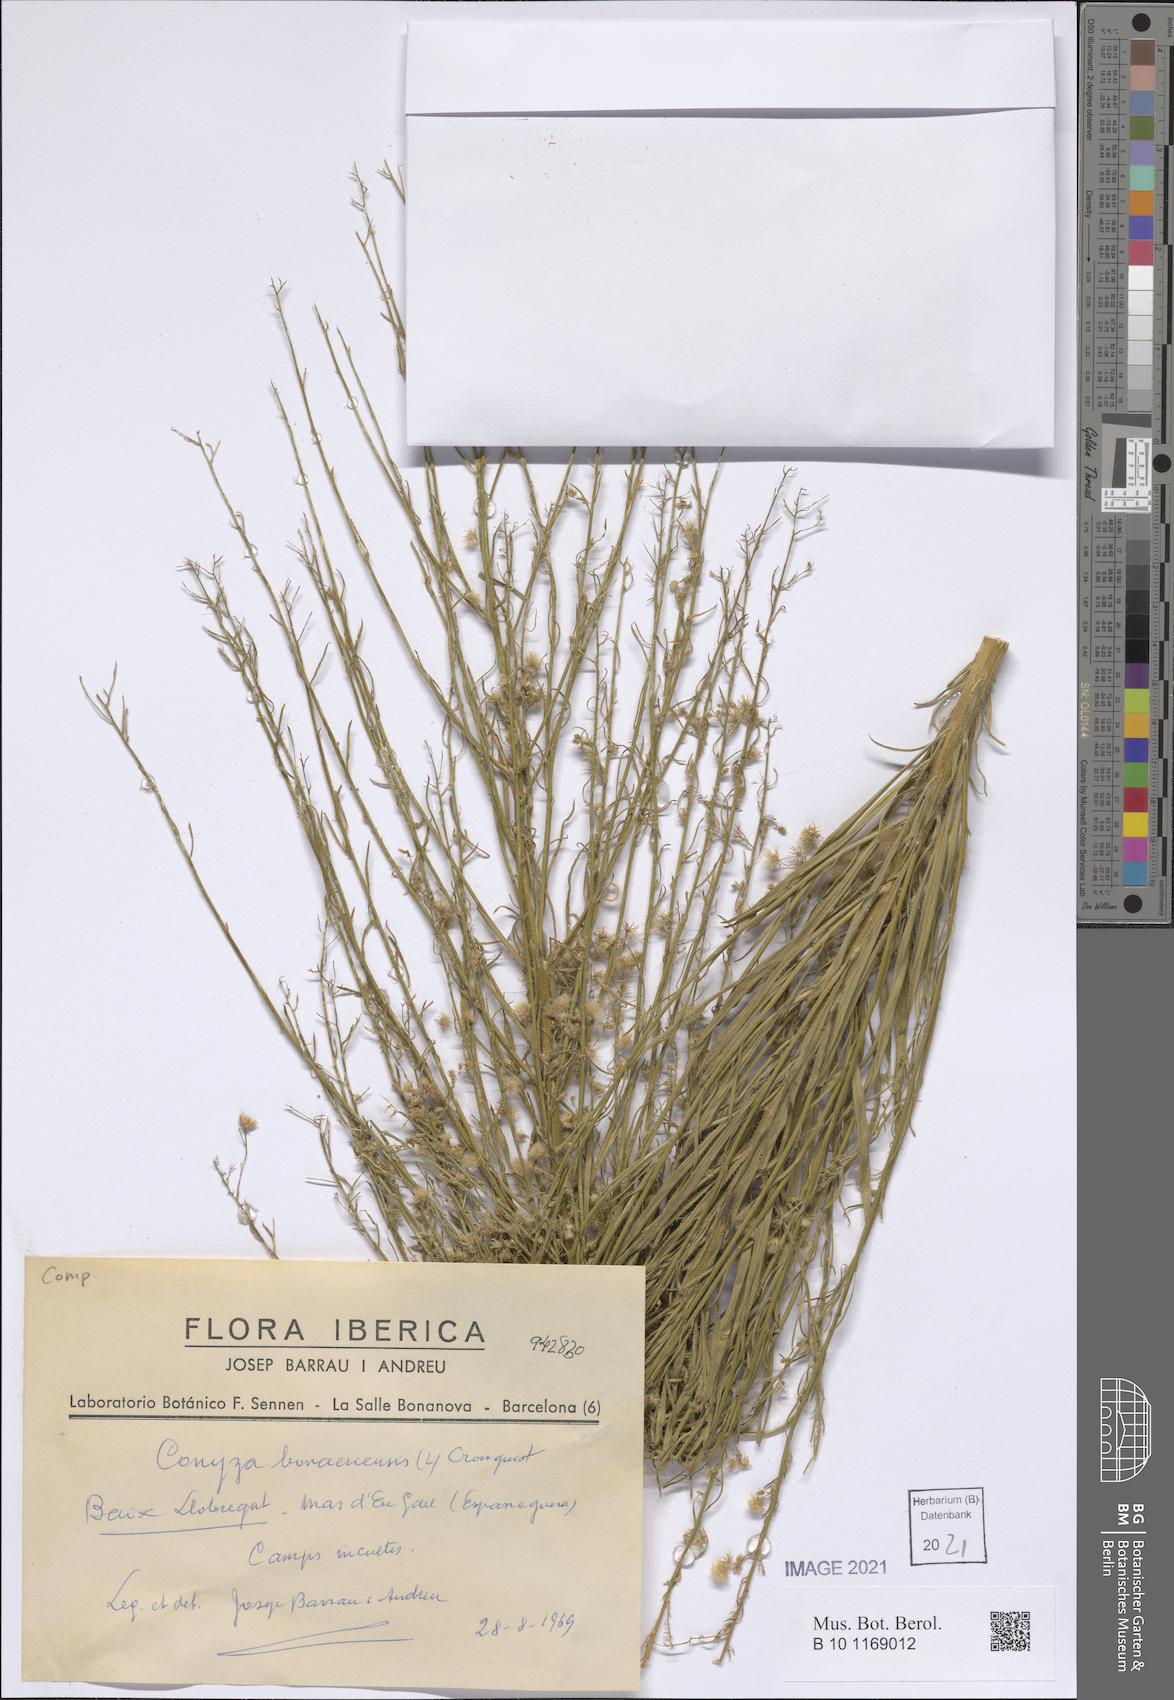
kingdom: Plantae
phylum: Tracheophyta
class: Magnoliopsida
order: Asterales
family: Asteraceae
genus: Erigeron
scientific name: Erigeron bonariensis
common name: Argentine fleabane
